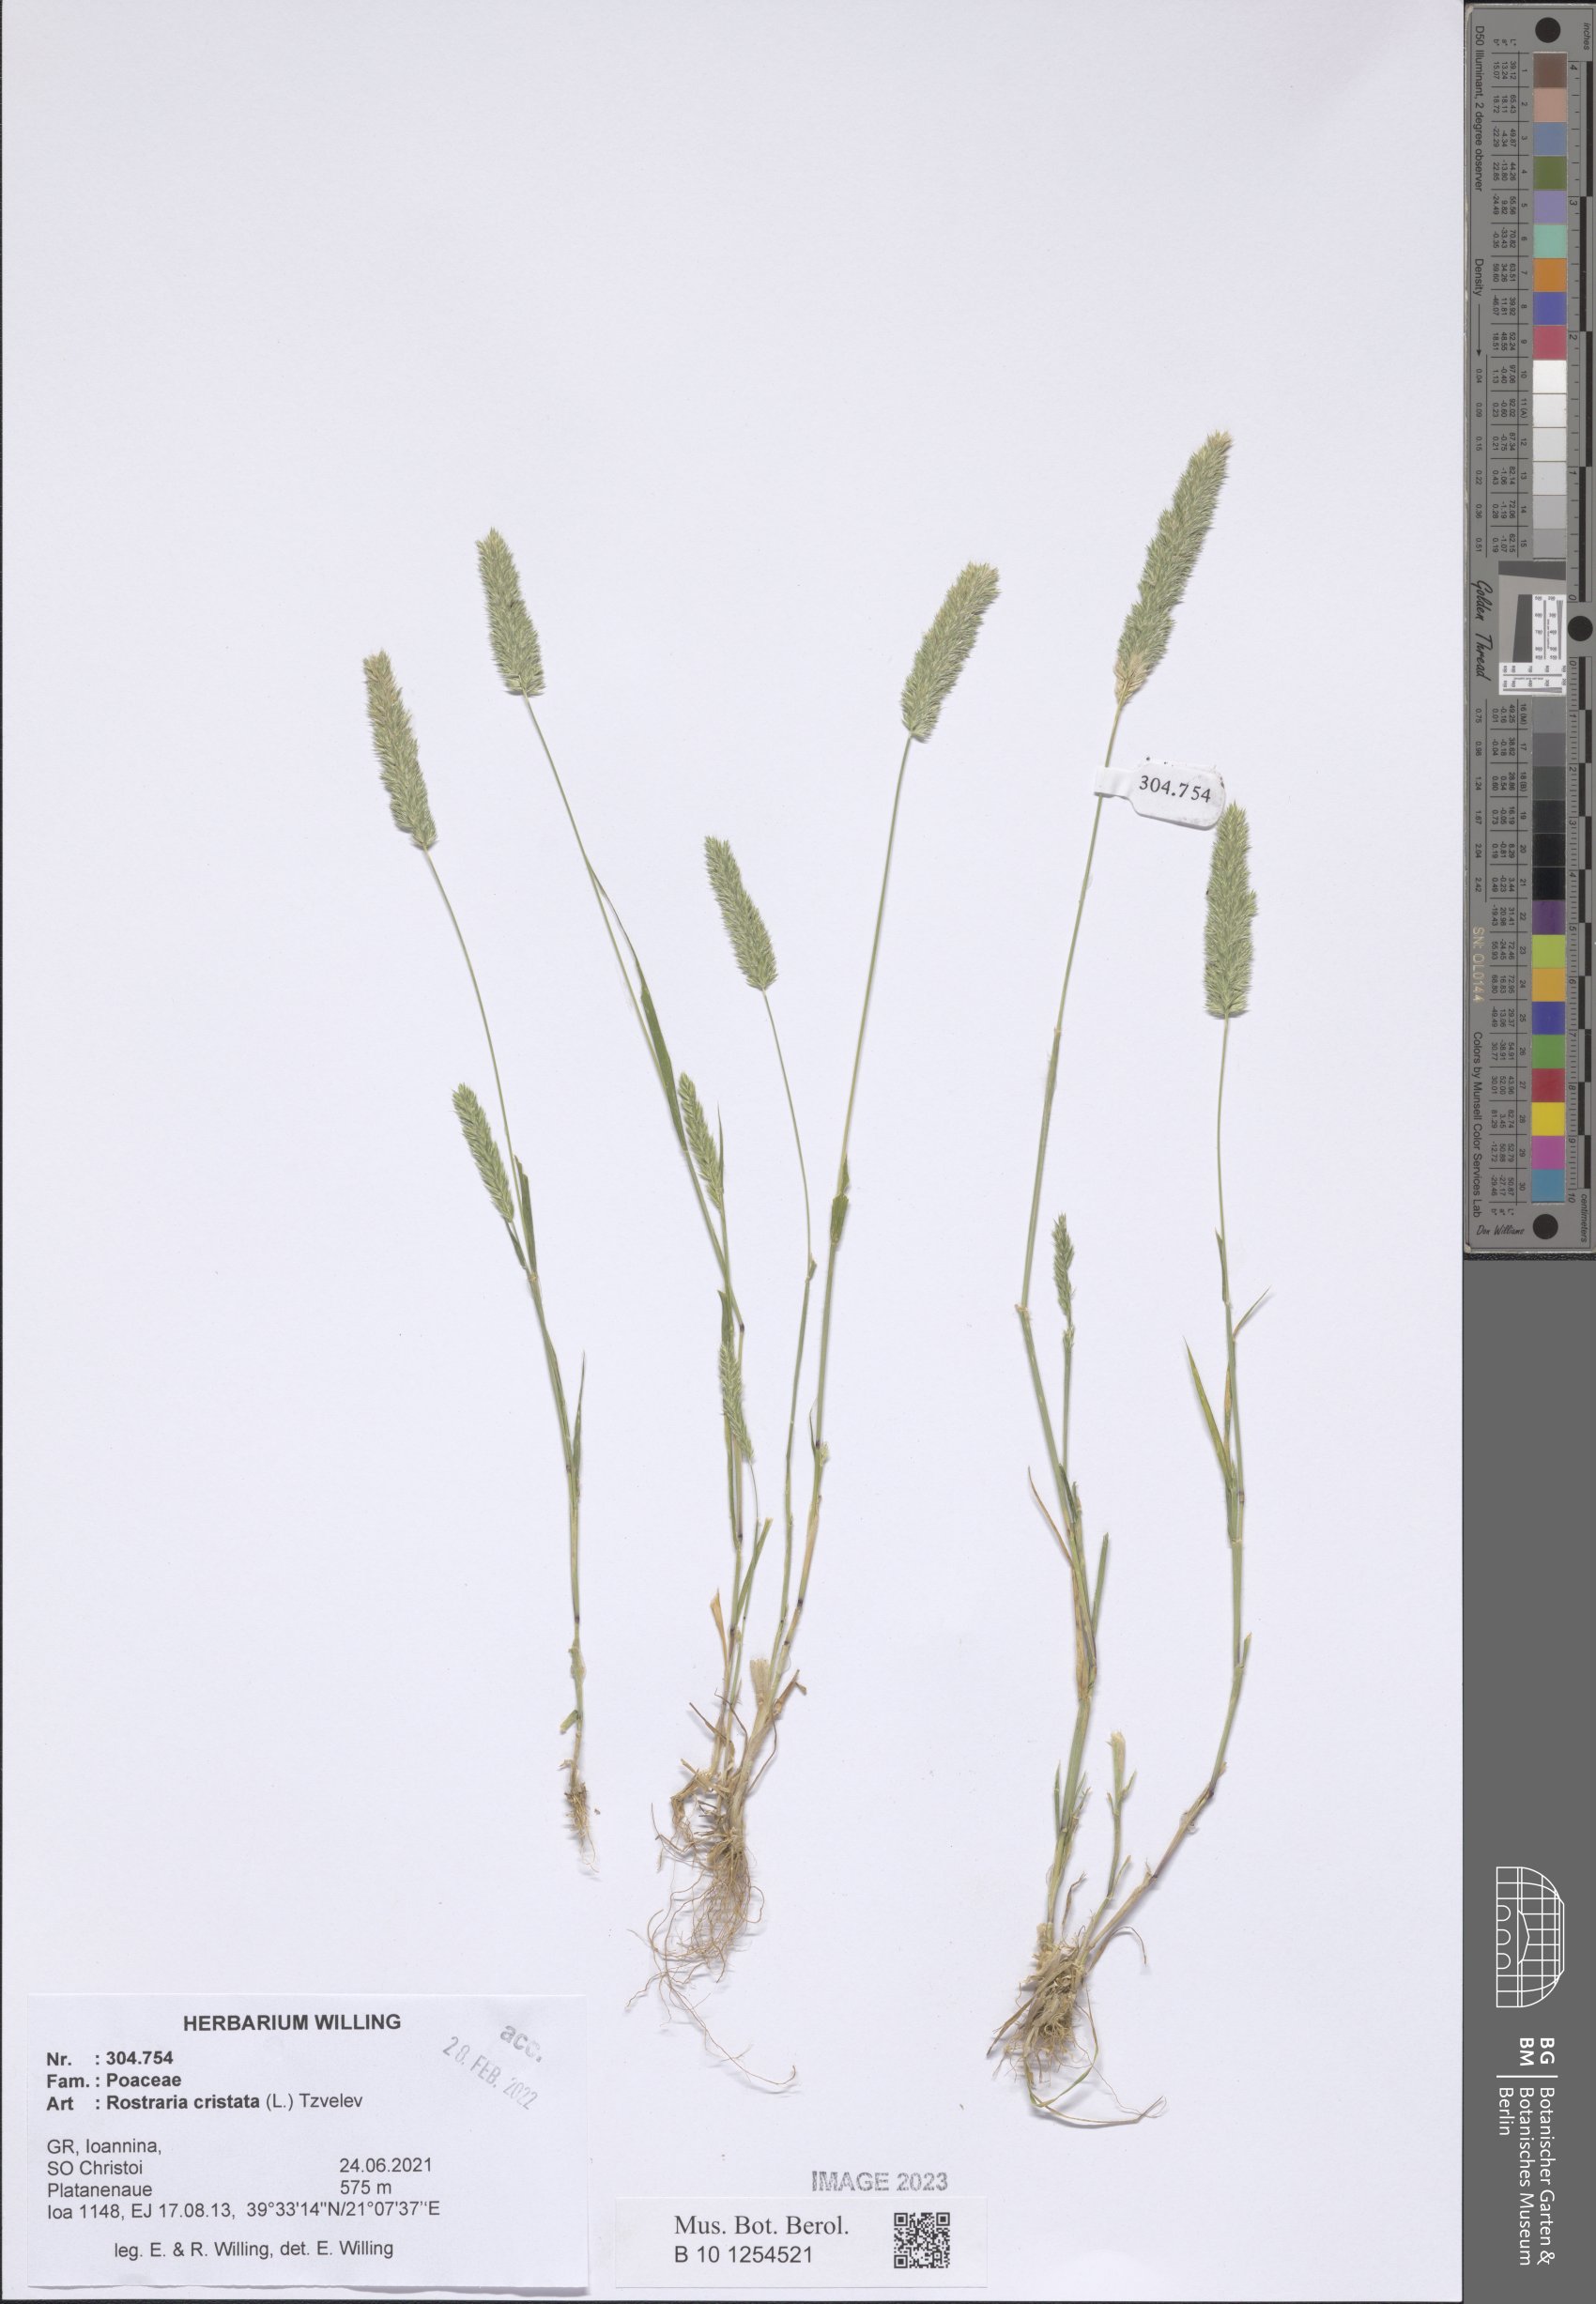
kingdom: Plantae
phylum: Tracheophyta
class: Liliopsida
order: Poales
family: Poaceae
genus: Rostraria
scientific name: Rostraria cristata
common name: Mediterranean hair-grass
